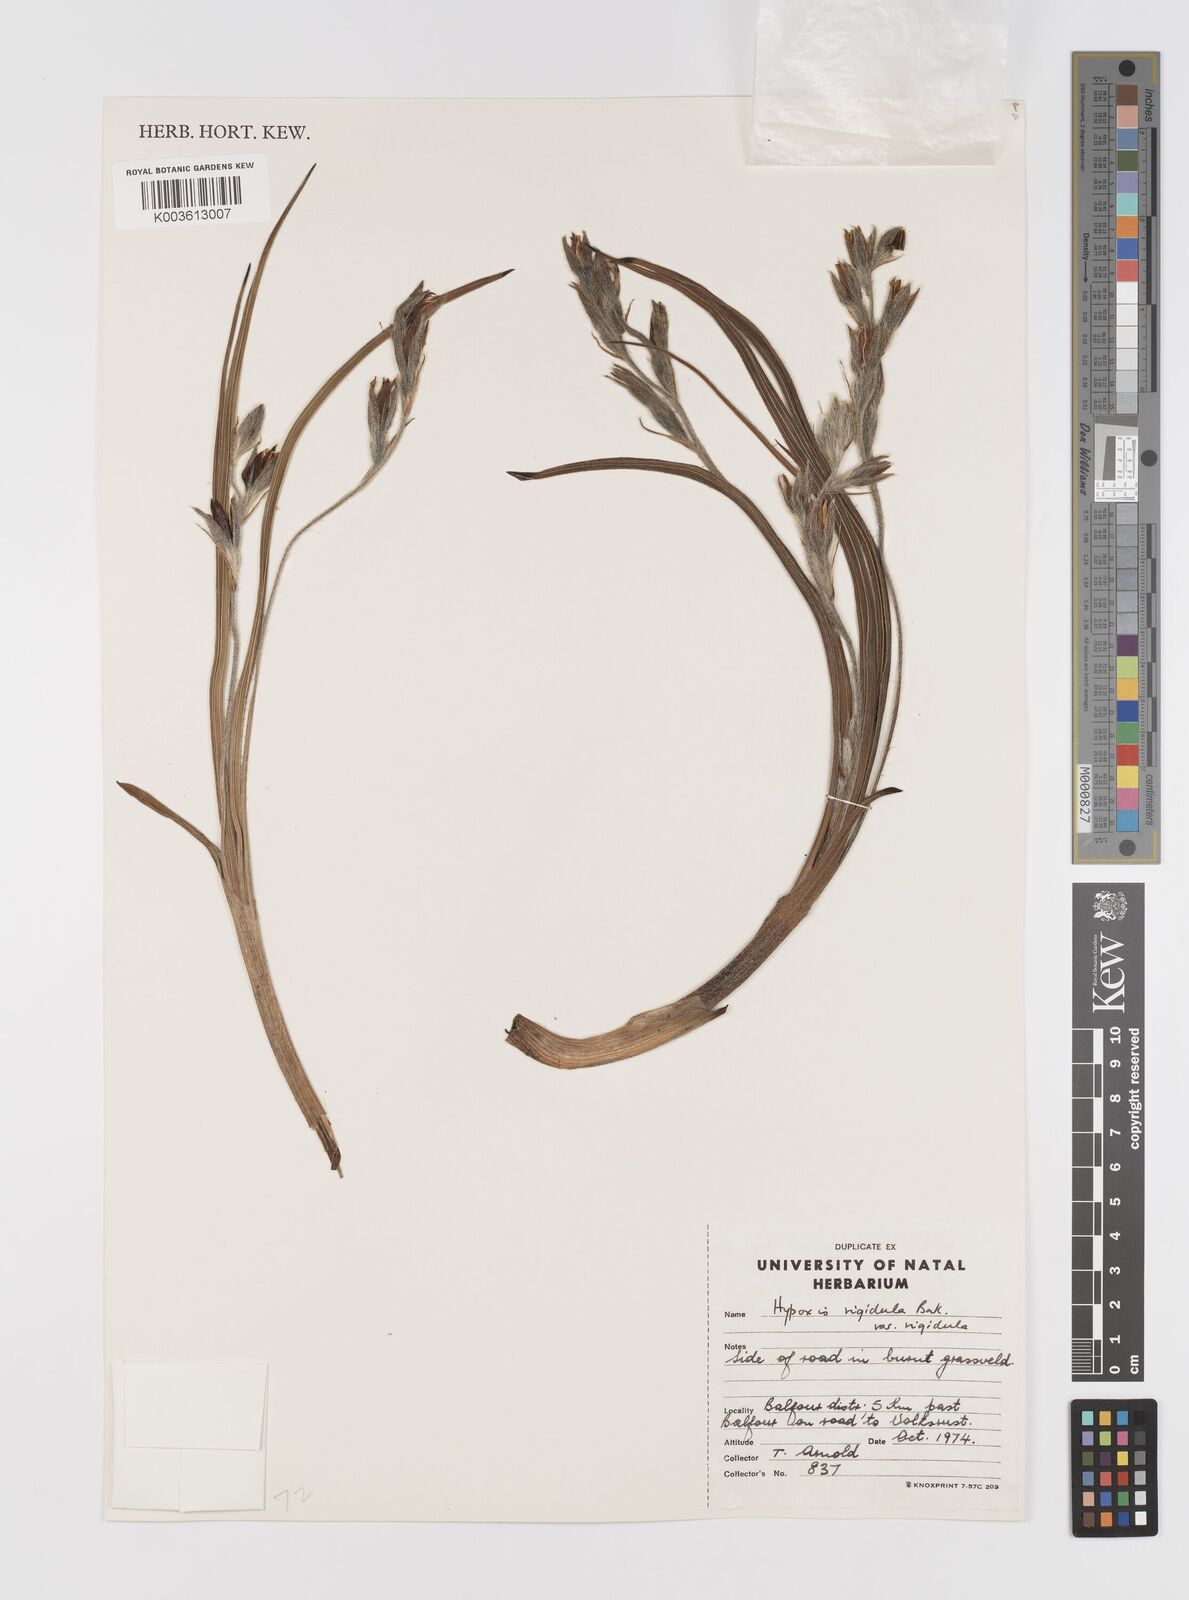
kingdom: Plantae
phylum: Tracheophyta
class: Liliopsida
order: Asparagales
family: Hypoxidaceae
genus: Hypoxis
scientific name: Hypoxis rigidula
